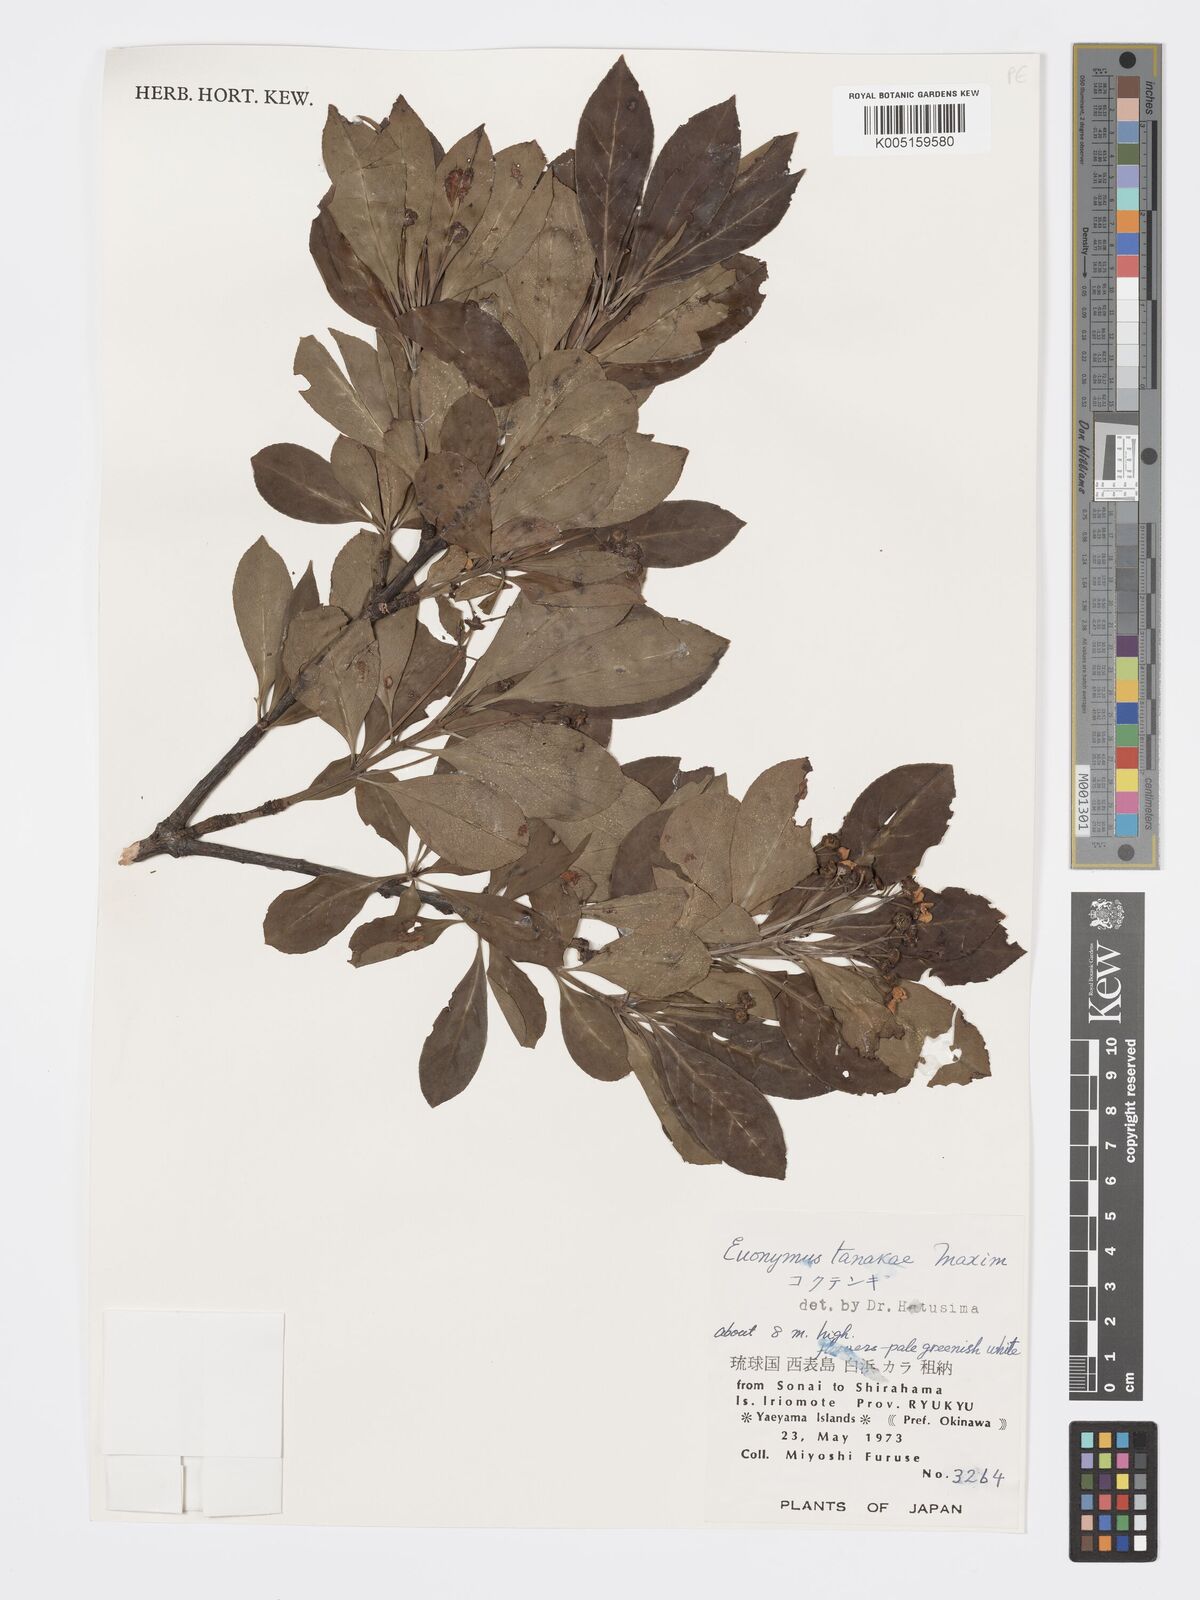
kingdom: Plantae
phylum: Tracheophyta
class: Magnoliopsida
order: Celastrales
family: Celastraceae
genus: Euonymus
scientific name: Euonymus carnosus
